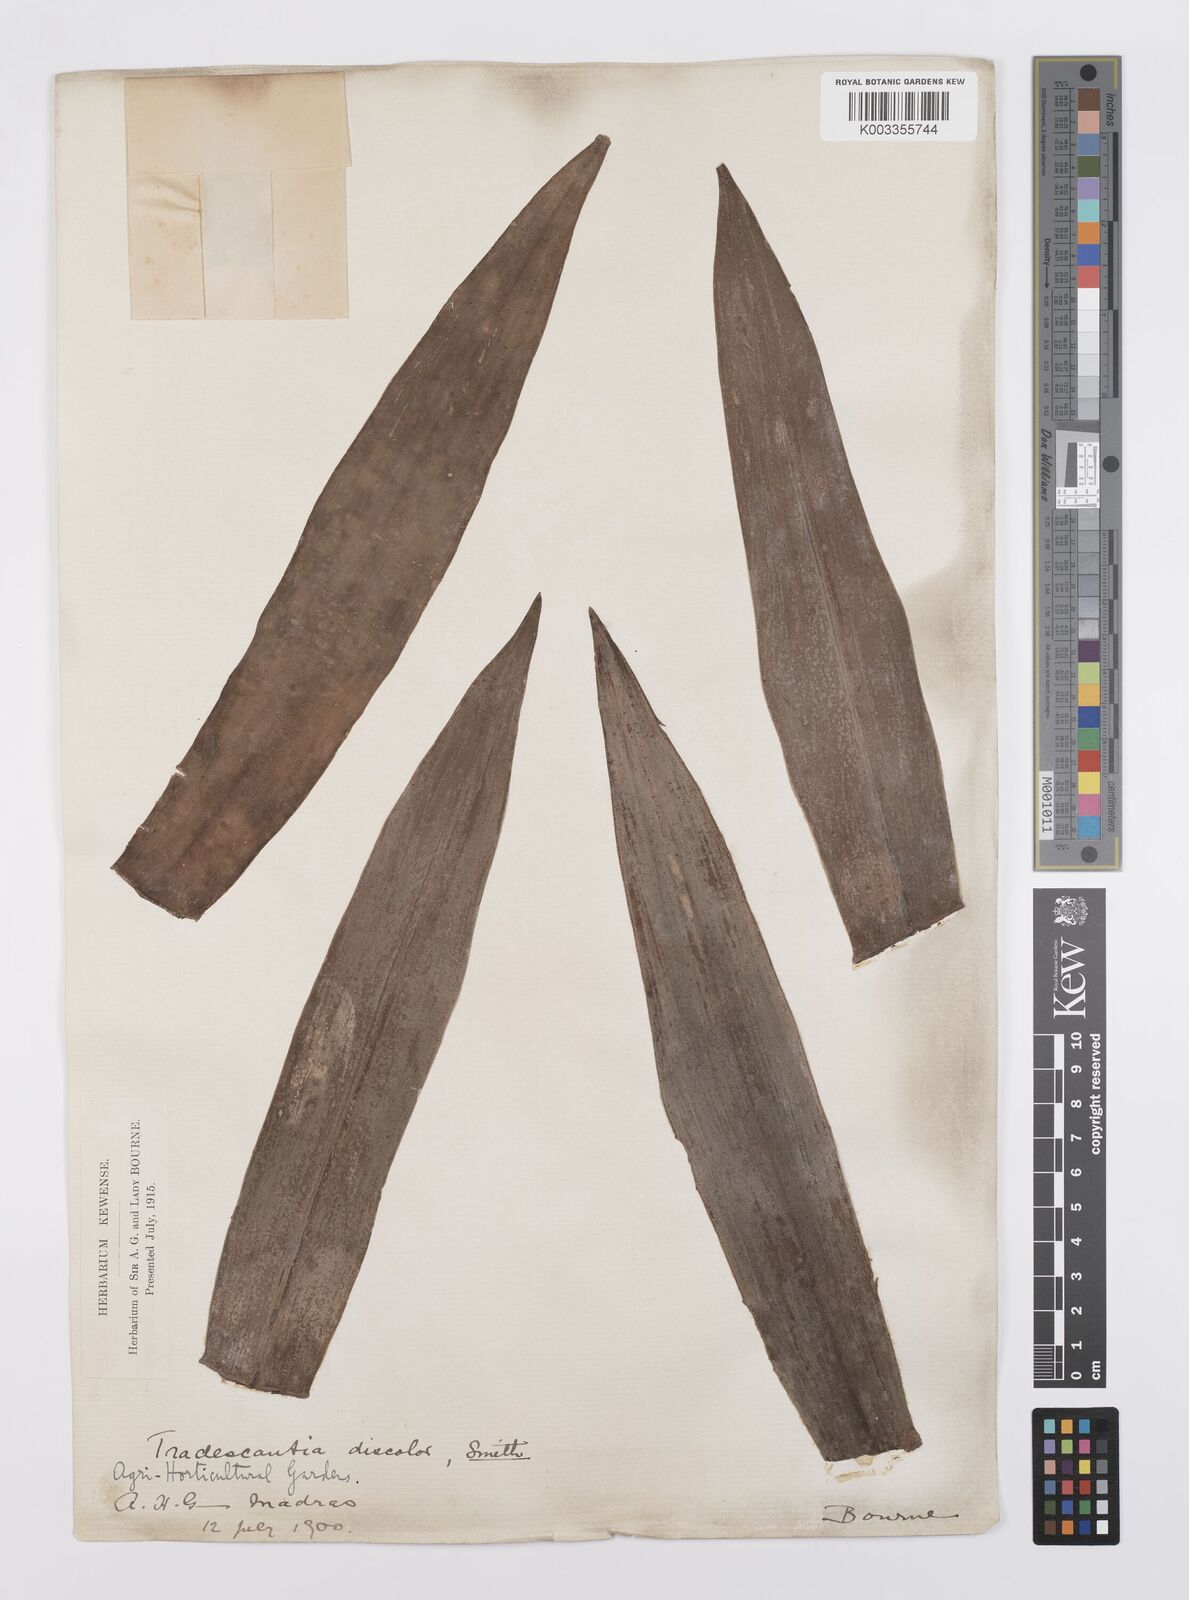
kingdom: Plantae
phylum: Tracheophyta
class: Liliopsida
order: Commelinales
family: Commelinaceae
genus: Tradescantia
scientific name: Tradescantia spathacea
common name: Boatlily
